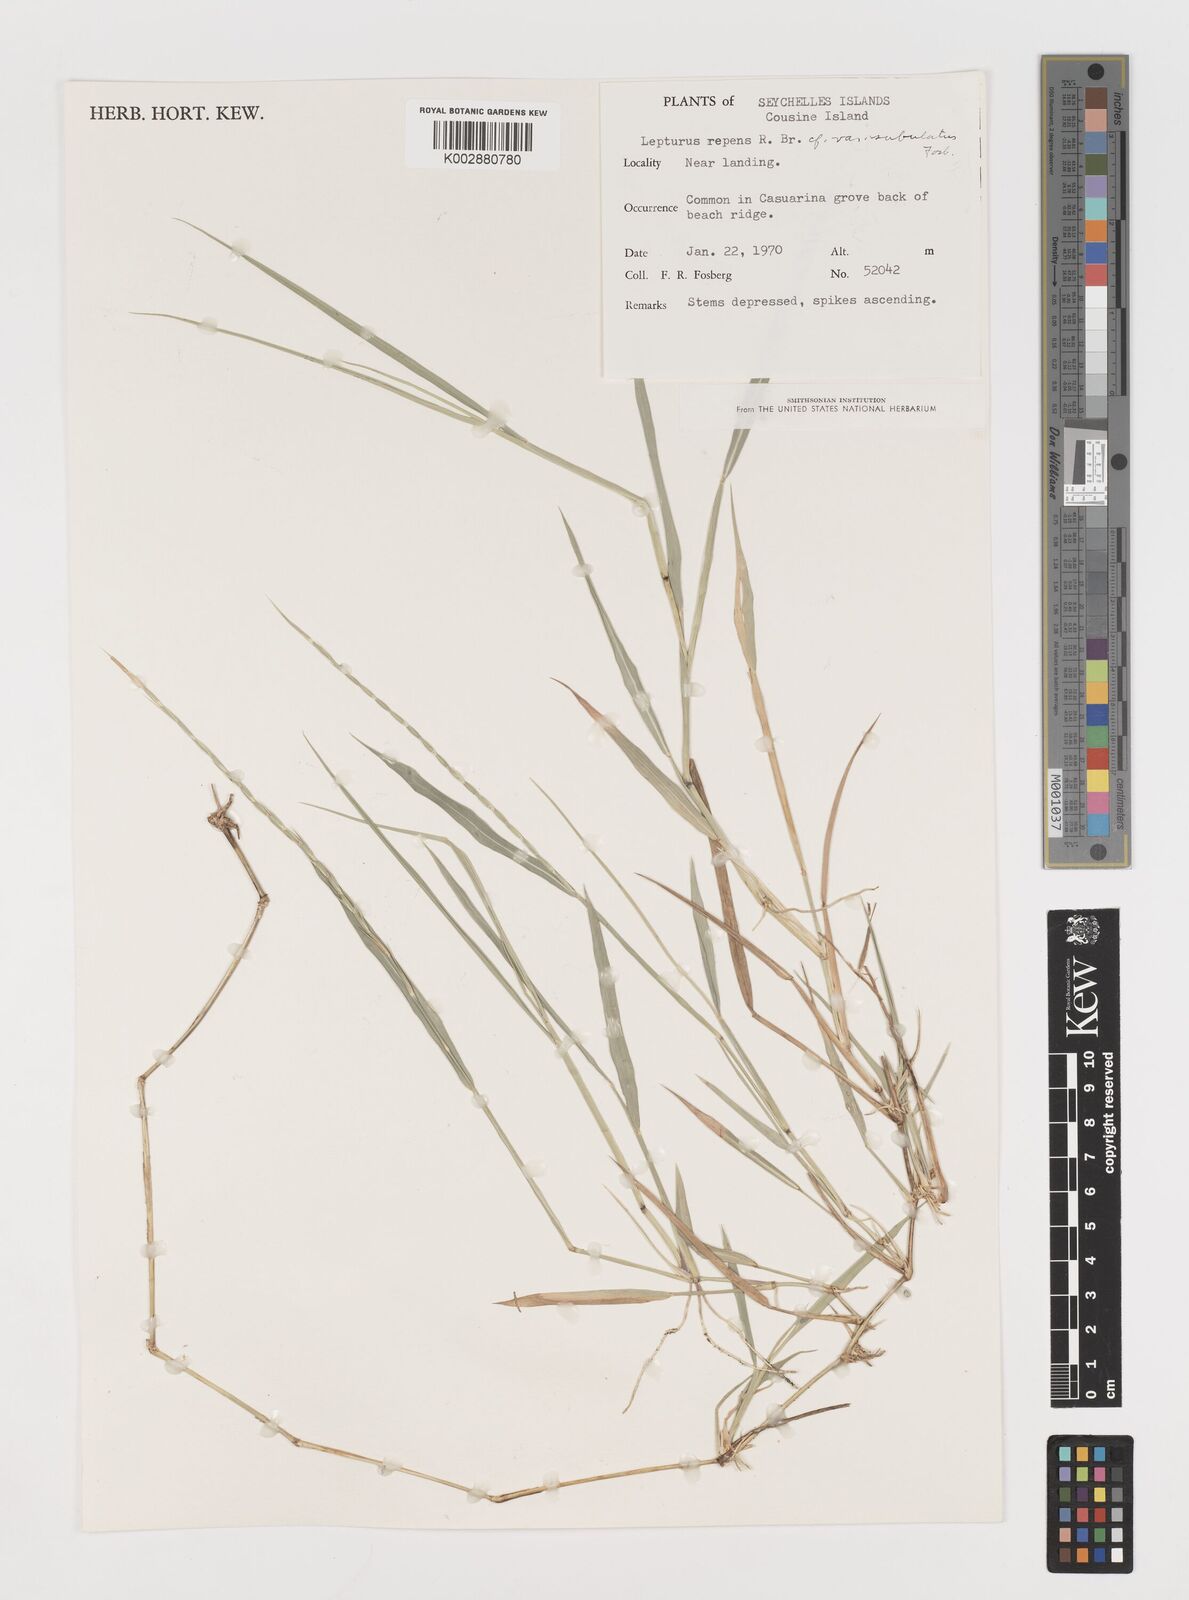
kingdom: Plantae
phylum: Tracheophyta
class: Liliopsida
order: Poales
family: Poaceae
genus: Lepturus
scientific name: Lepturus repens
